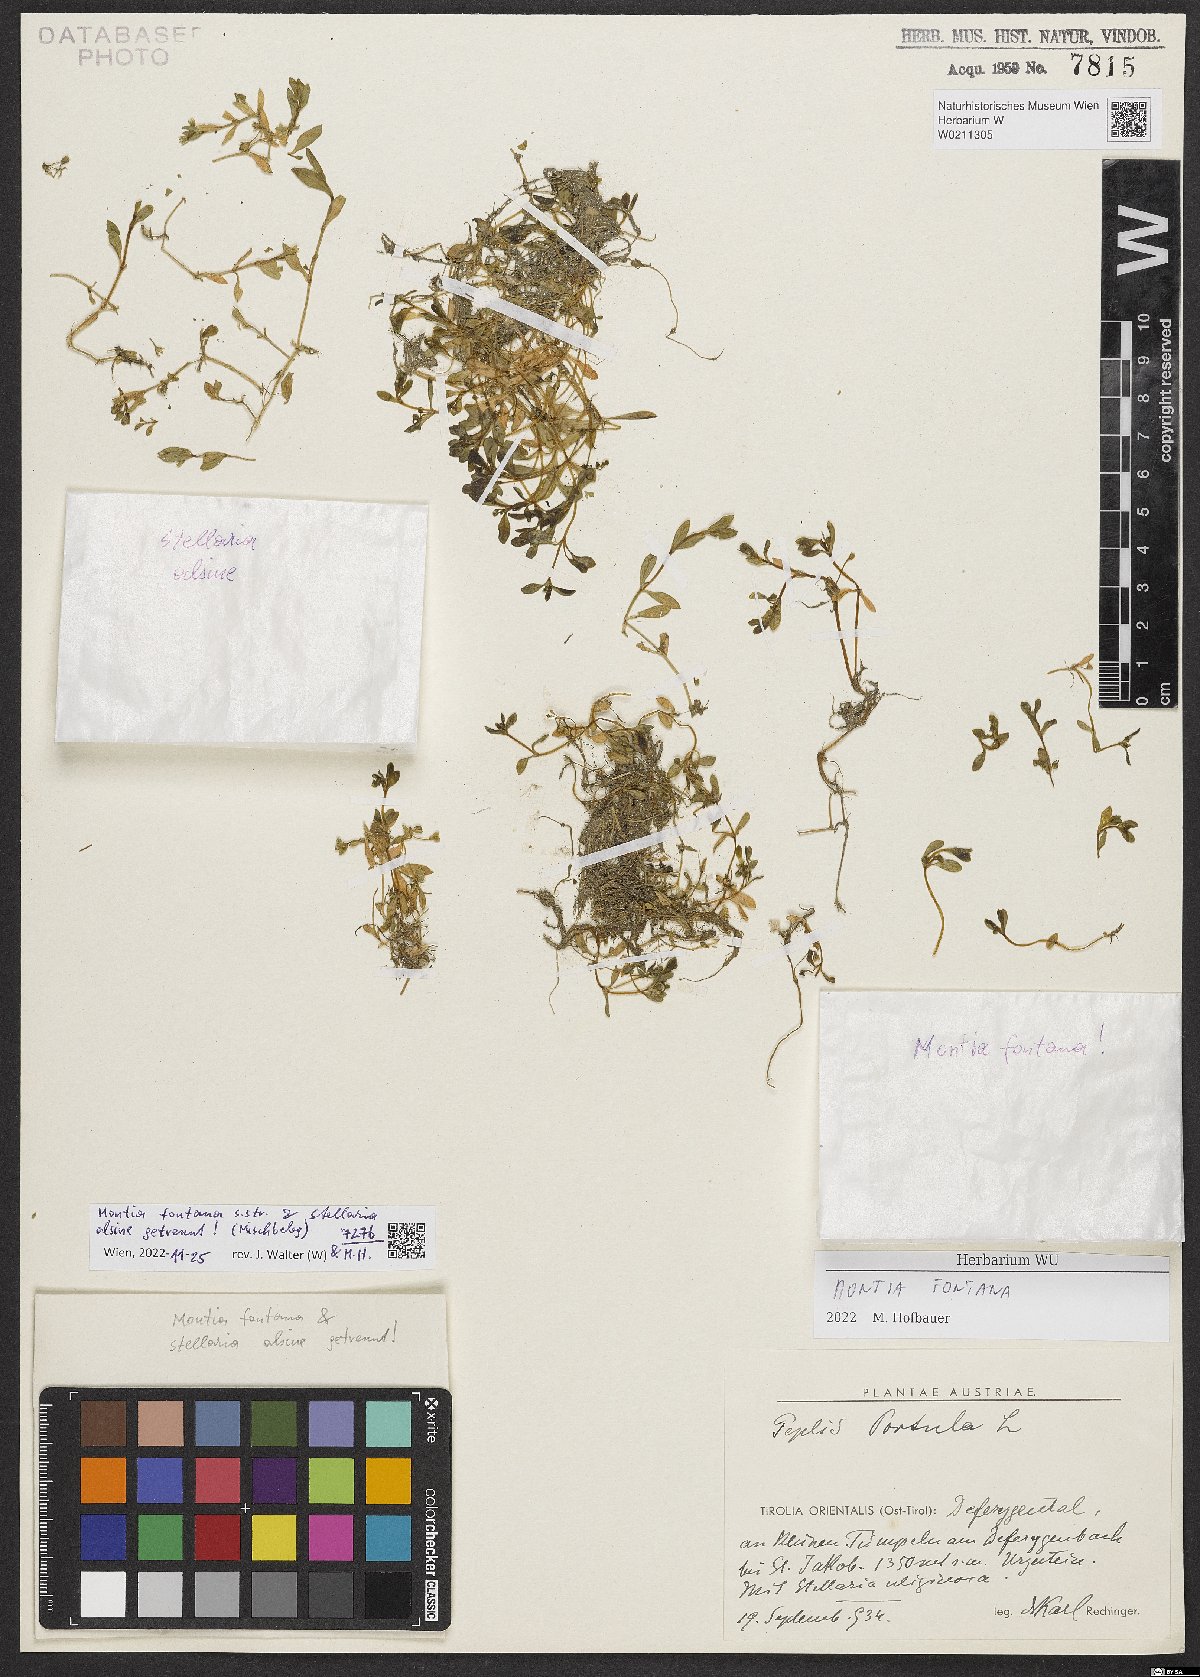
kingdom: Plantae
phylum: Tracheophyta
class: Magnoliopsida
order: Caryophyllales
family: Montiaceae
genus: Montia
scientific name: Montia fontana
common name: Blinks
